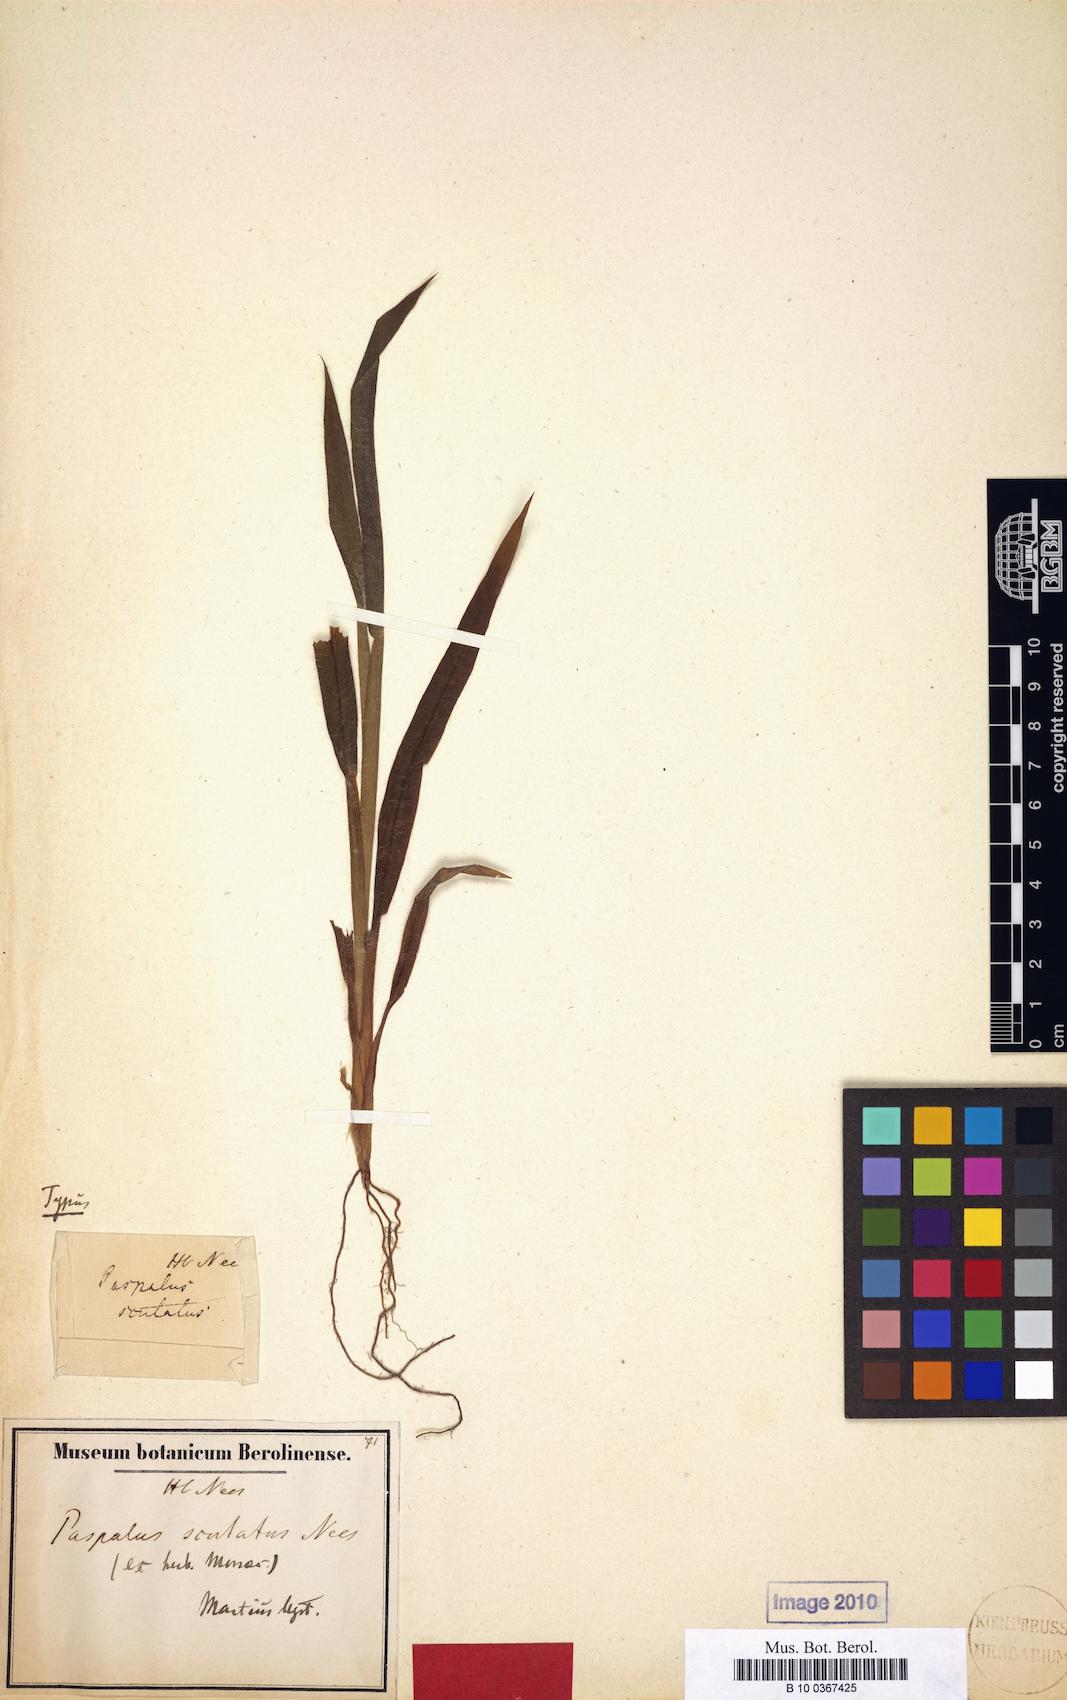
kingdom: Plantae
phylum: Tracheophyta
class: Liliopsida
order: Poales
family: Poaceae
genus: Paspalum
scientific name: Paspalum scutatum
